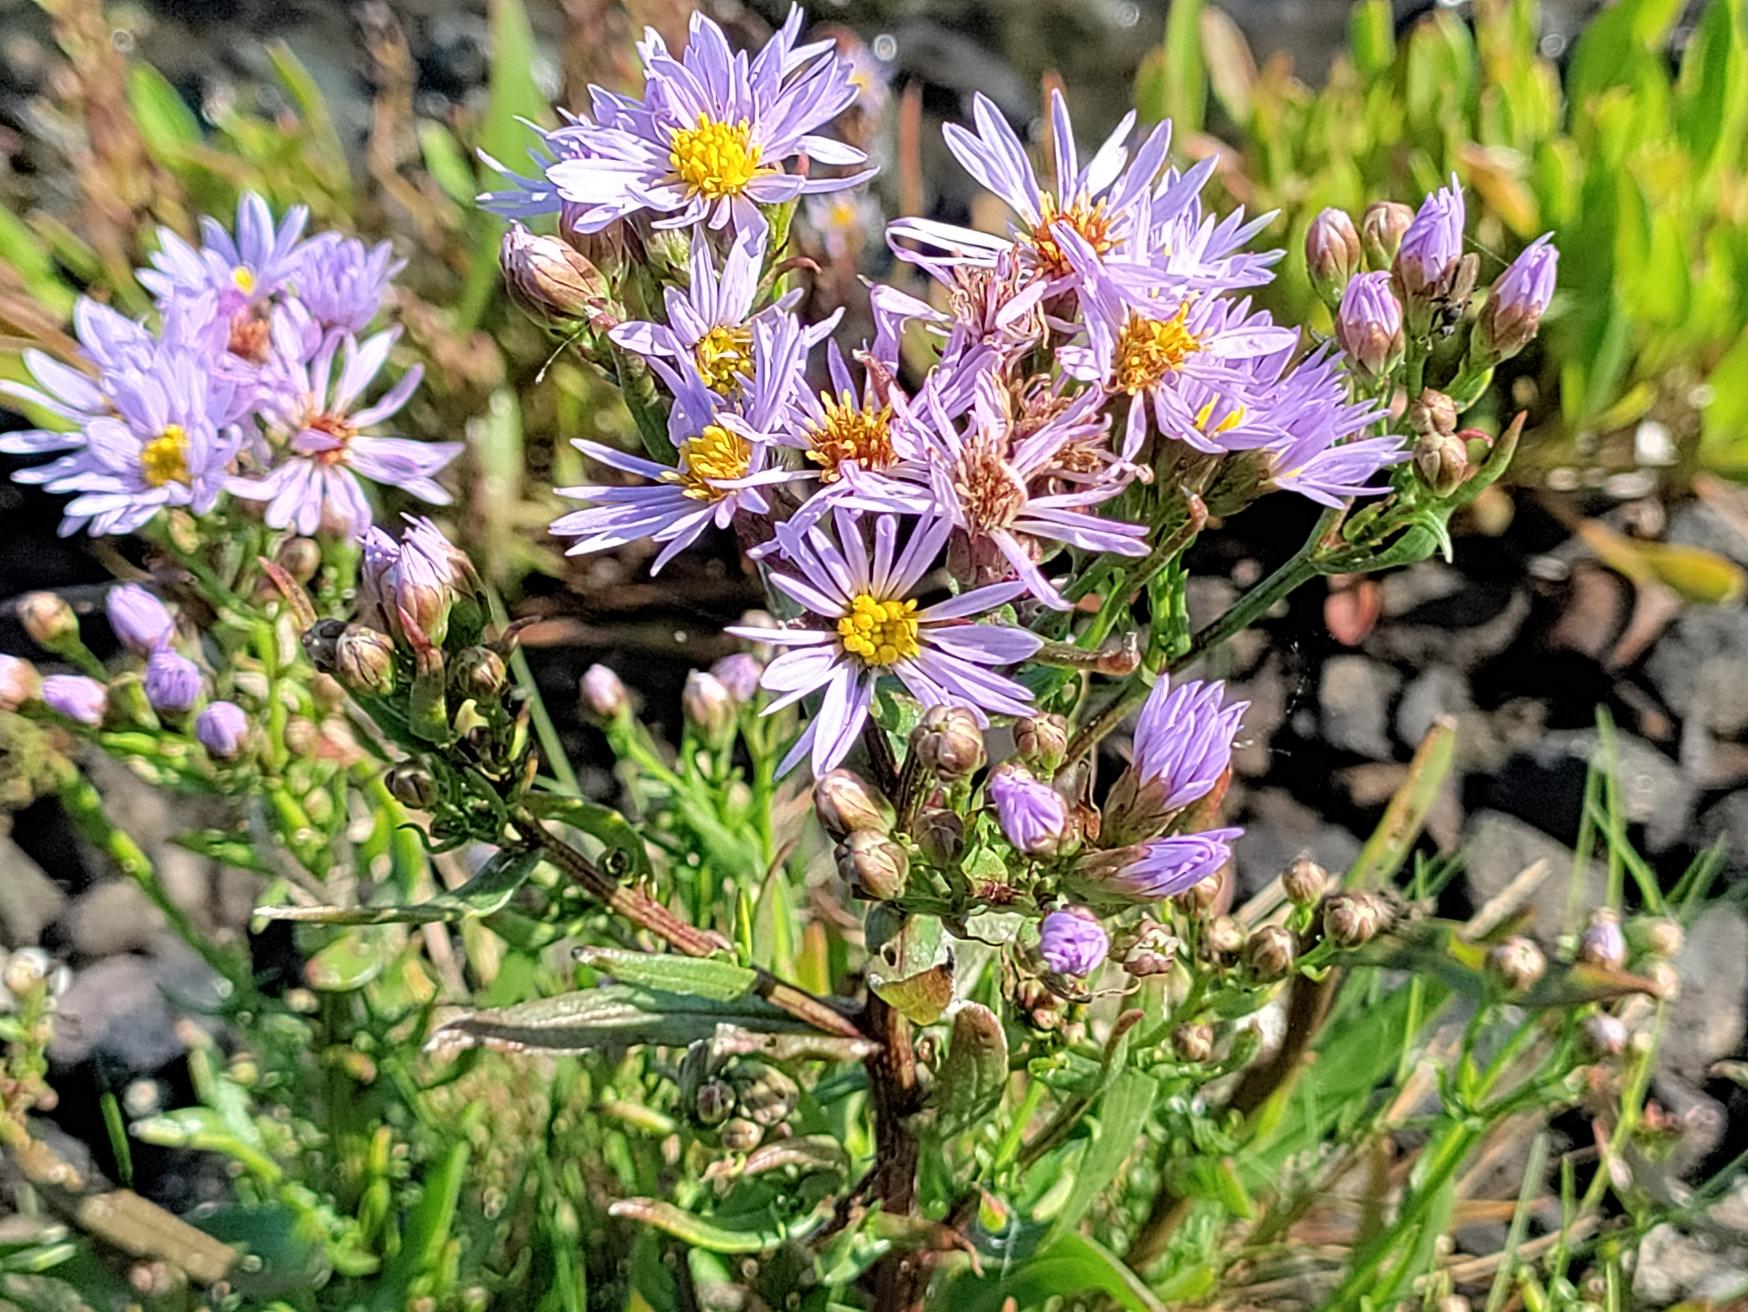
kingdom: Plantae
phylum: Tracheophyta
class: Magnoliopsida
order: Asterales
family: Asteraceae
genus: Tripolium
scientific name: Tripolium pannonicum
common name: Strandasters
